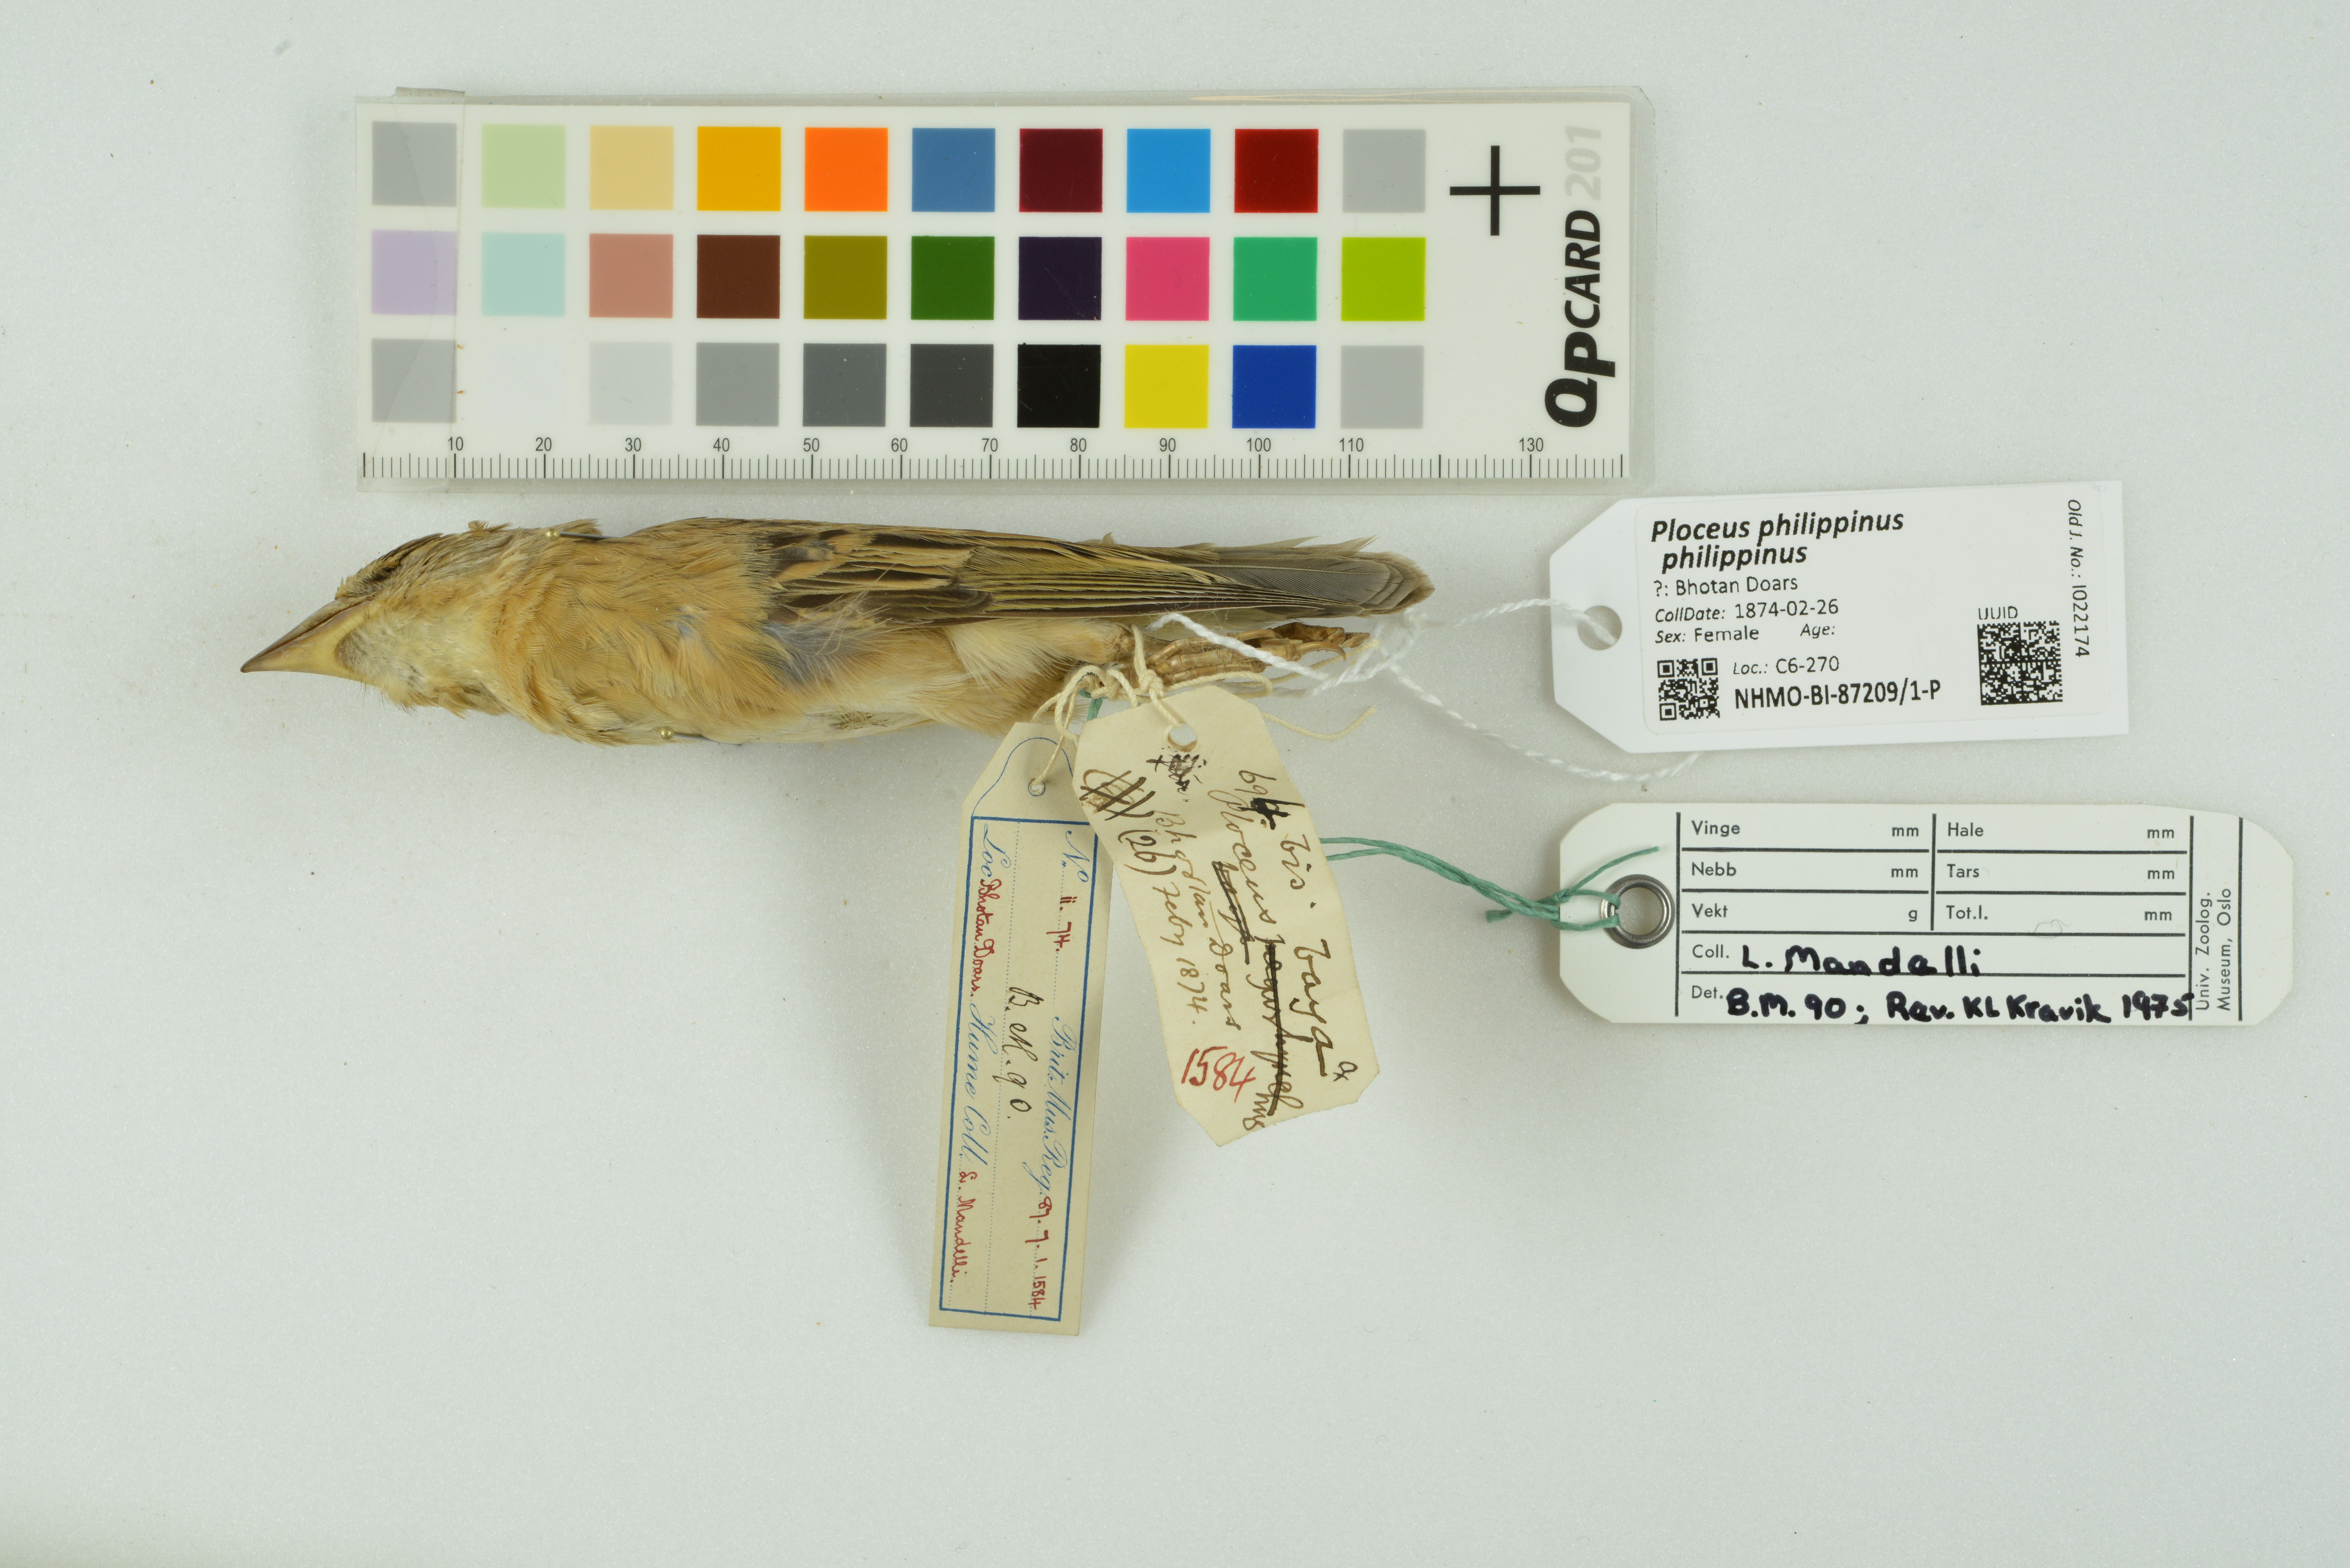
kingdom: Animalia
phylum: Chordata
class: Aves
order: Passeriformes
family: Ploceidae
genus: Ploceus
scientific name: Ploceus philippinus
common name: Baya weaver
